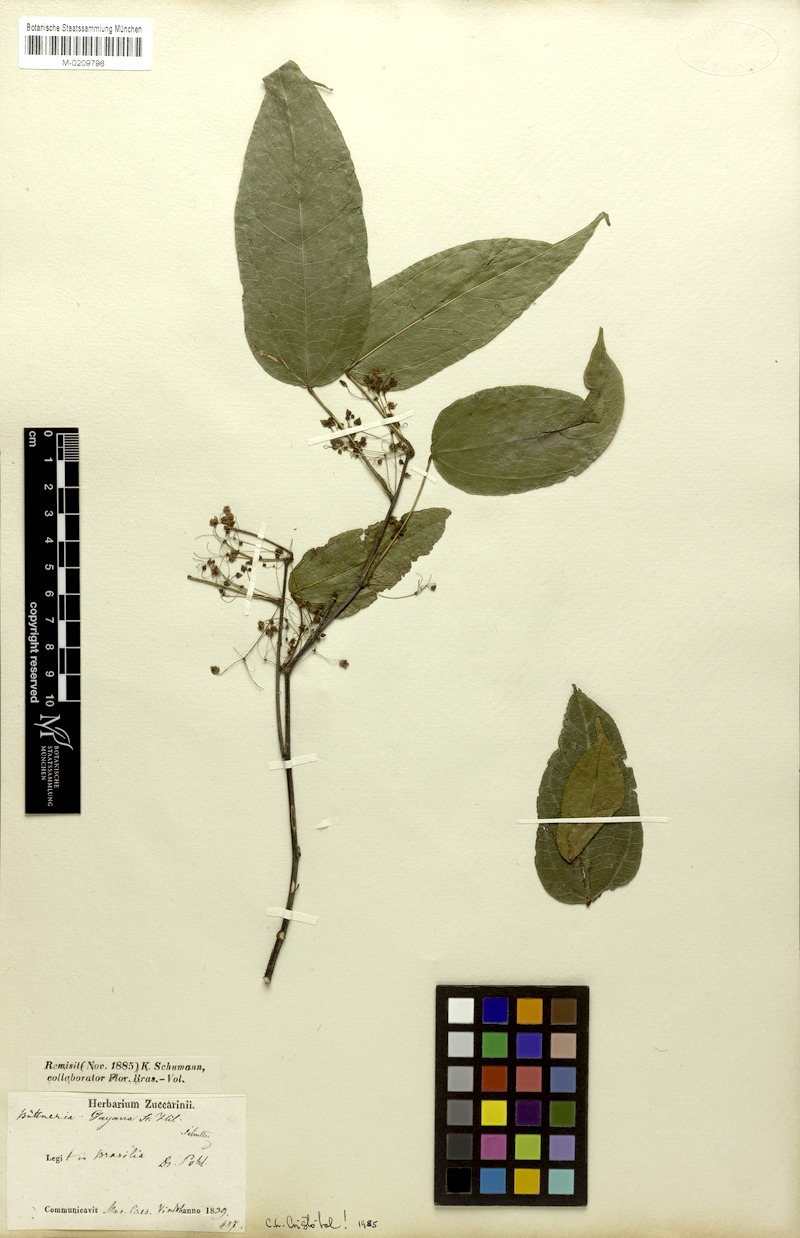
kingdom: Plantae
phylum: Tracheophyta
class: Magnoliopsida
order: Malvales
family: Malvaceae
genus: Byttneria
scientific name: Byttneria gayana
